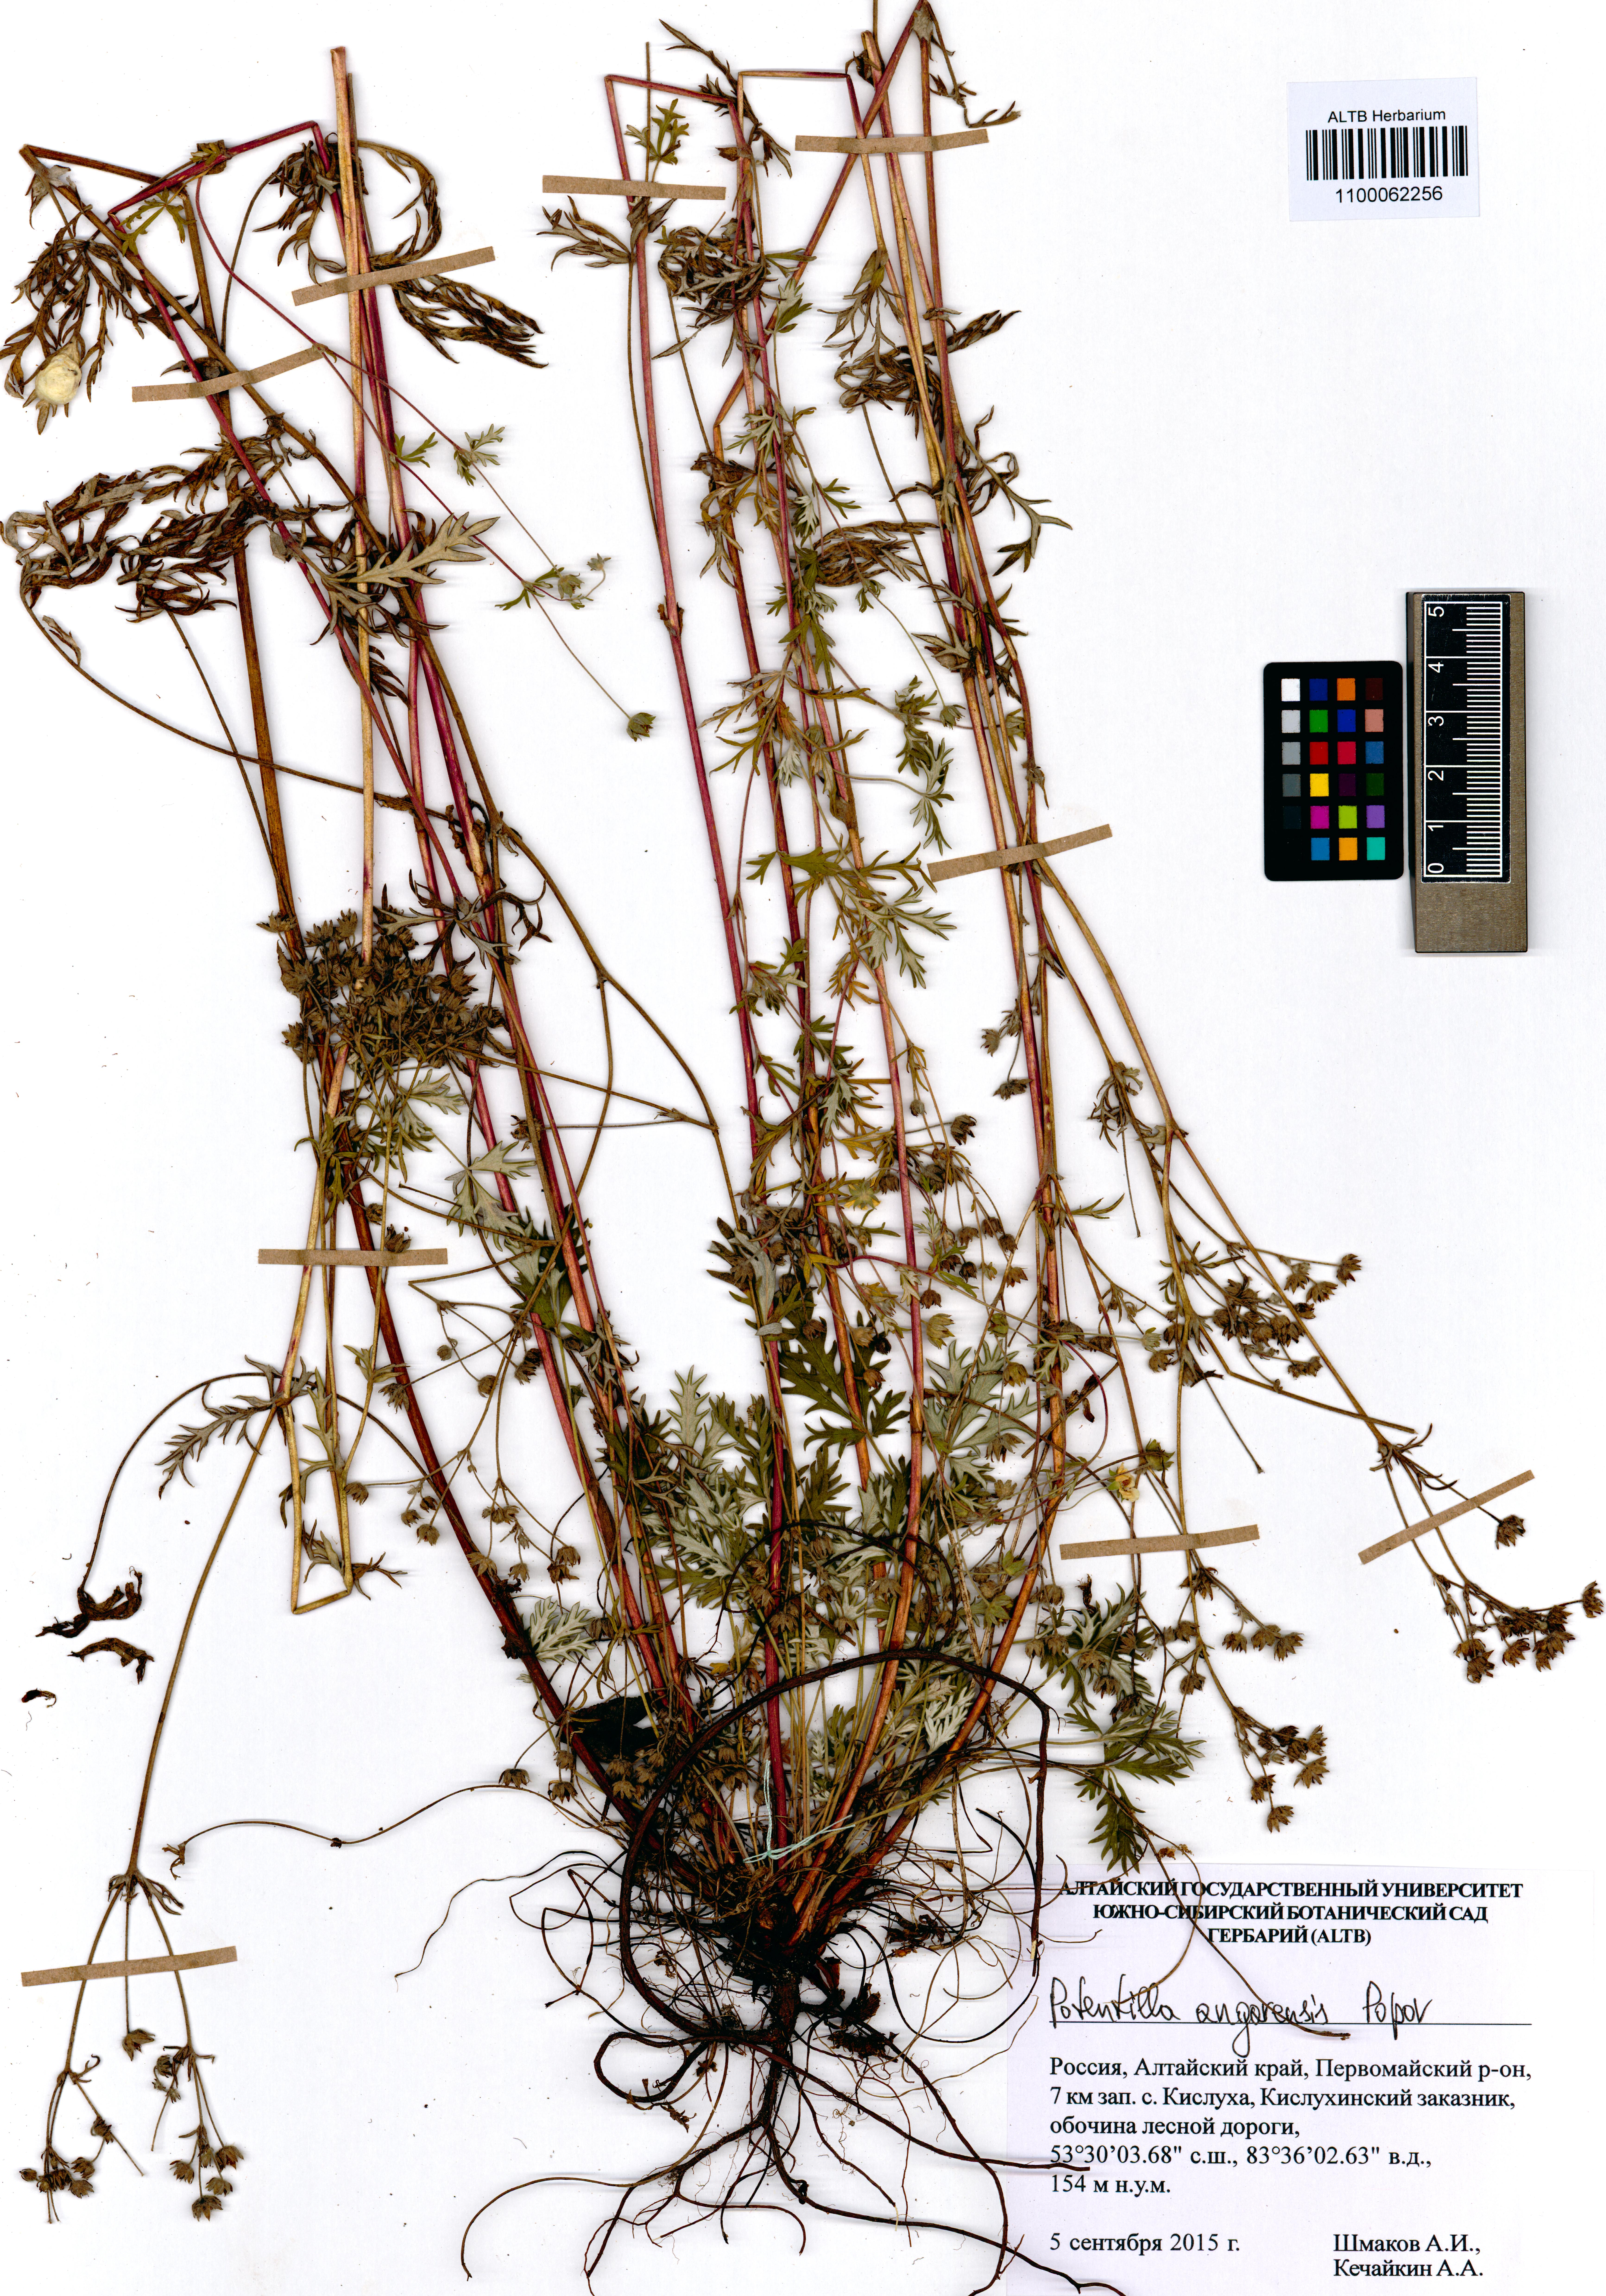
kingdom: Plantae
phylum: Tracheophyta
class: Magnoliopsida
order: Rosales
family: Rosaceae
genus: Potentilla
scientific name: Potentilla angarensis
